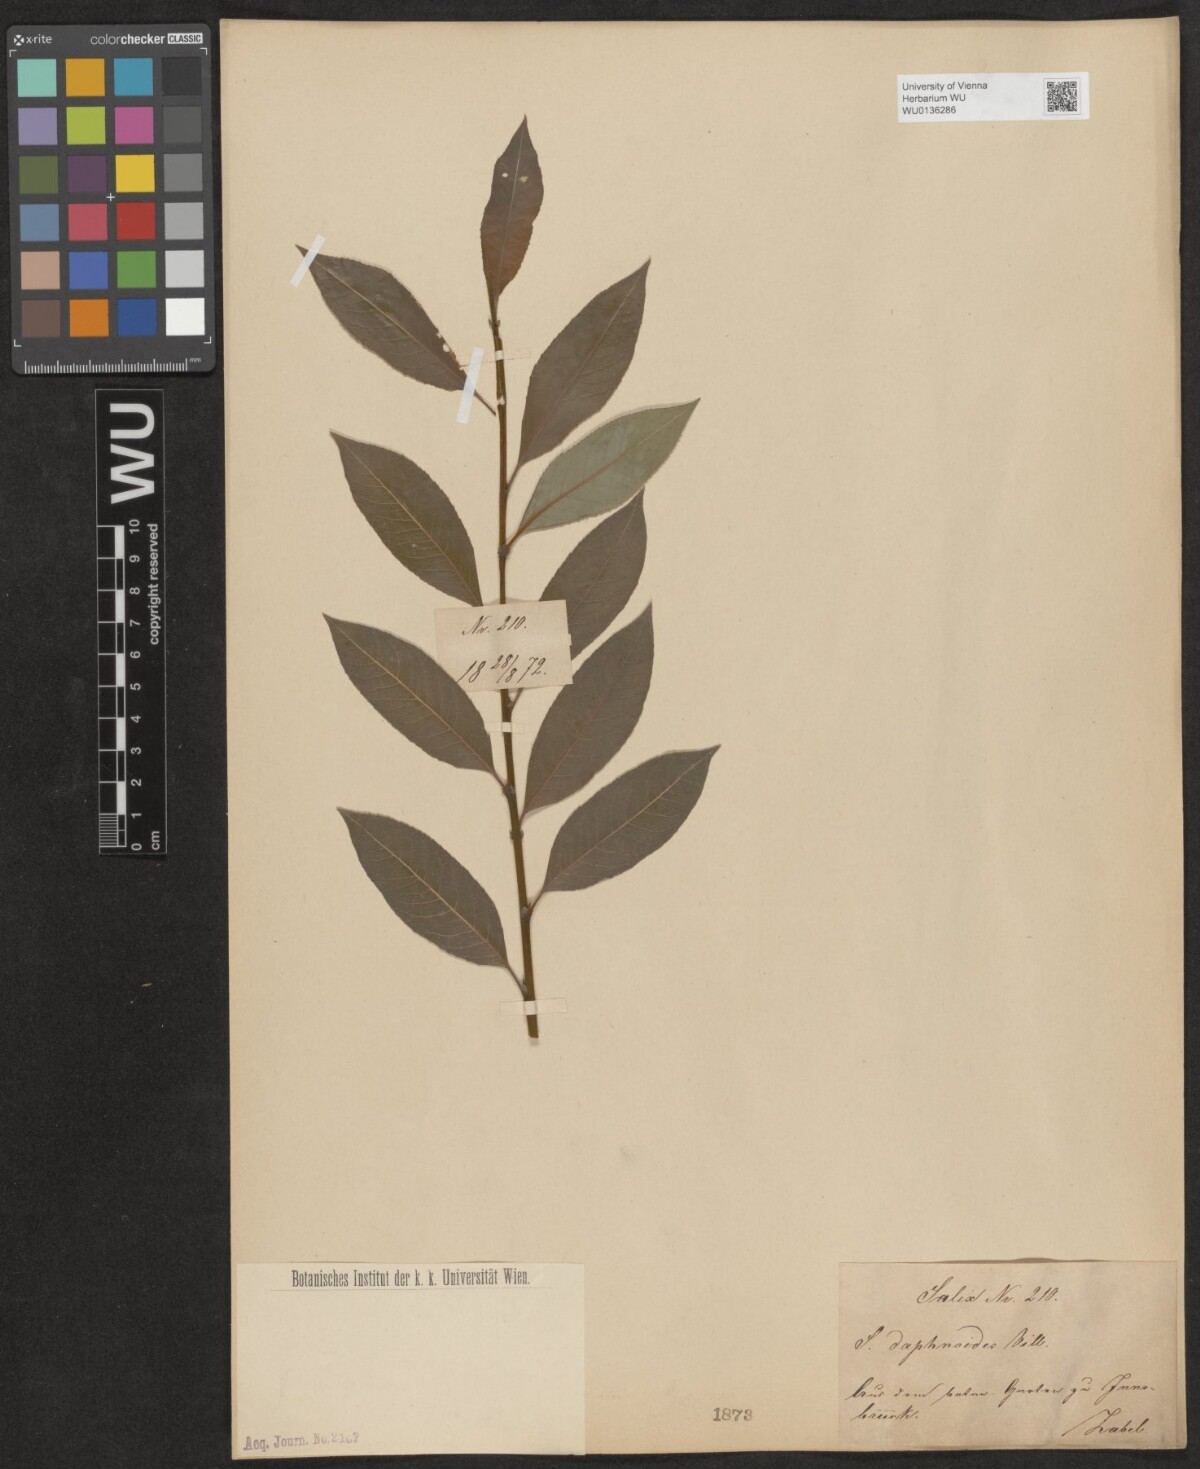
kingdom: Plantae
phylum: Tracheophyta
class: Magnoliopsida
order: Malpighiales
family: Salicaceae
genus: Salix
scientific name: Salix daphnoides
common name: European violet-willow
